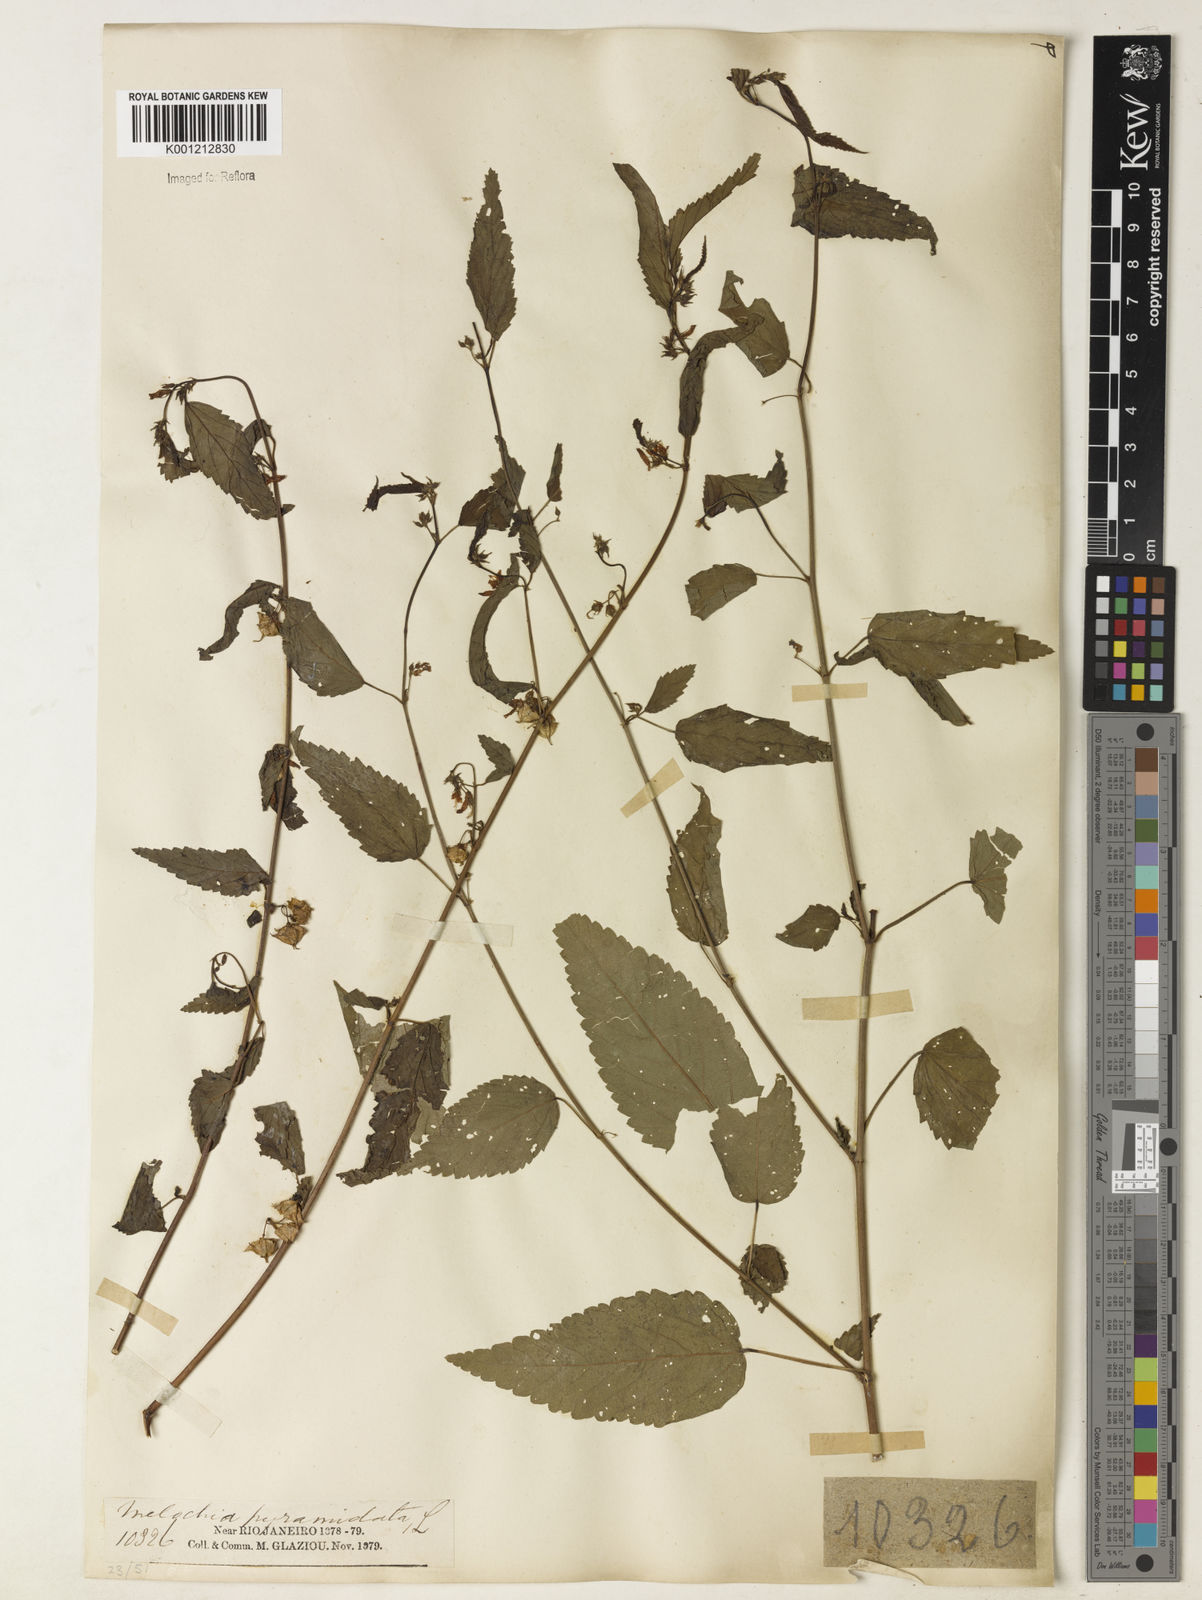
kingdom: Plantae
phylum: Tracheophyta
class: Magnoliopsida
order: Malvales
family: Malvaceae
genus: Melochia
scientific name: Melochia pyramidata
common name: Pyramidflower
